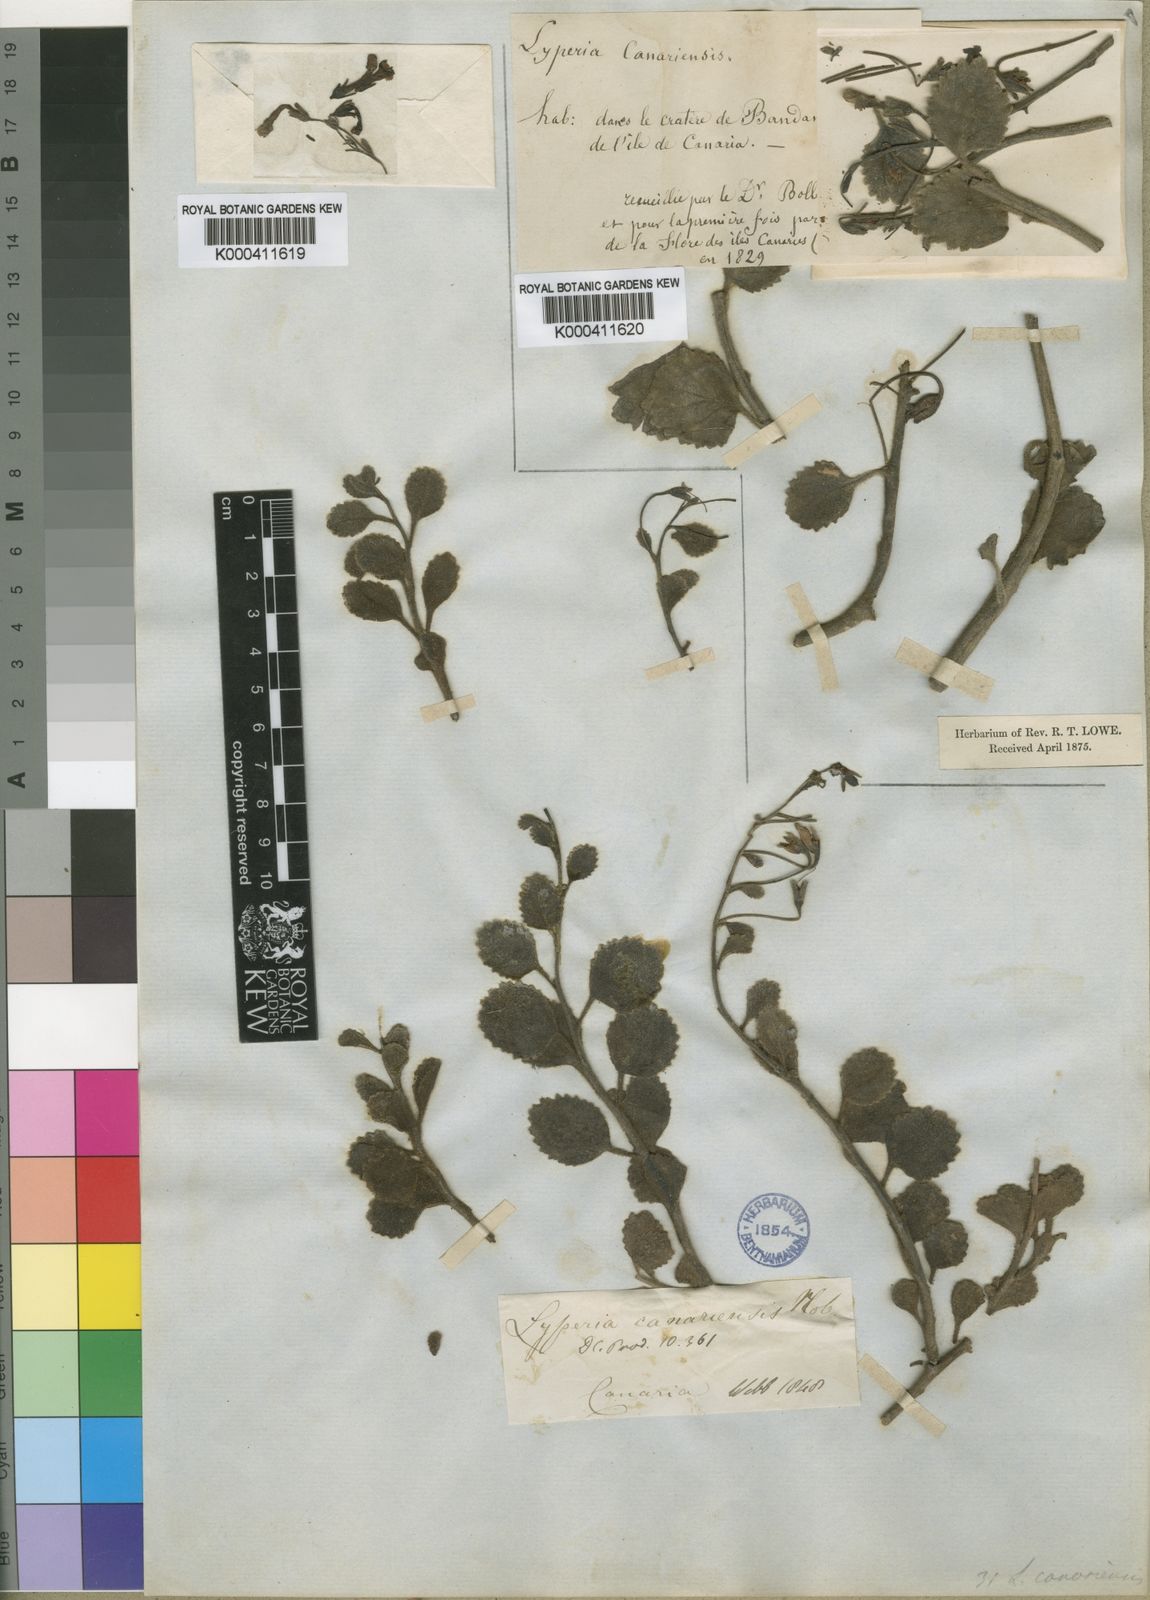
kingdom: Plantae
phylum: Tracheophyta
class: Magnoliopsida
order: Lamiales
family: Scrophulariaceae
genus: Camptoloma
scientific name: Camptoloma canariense
